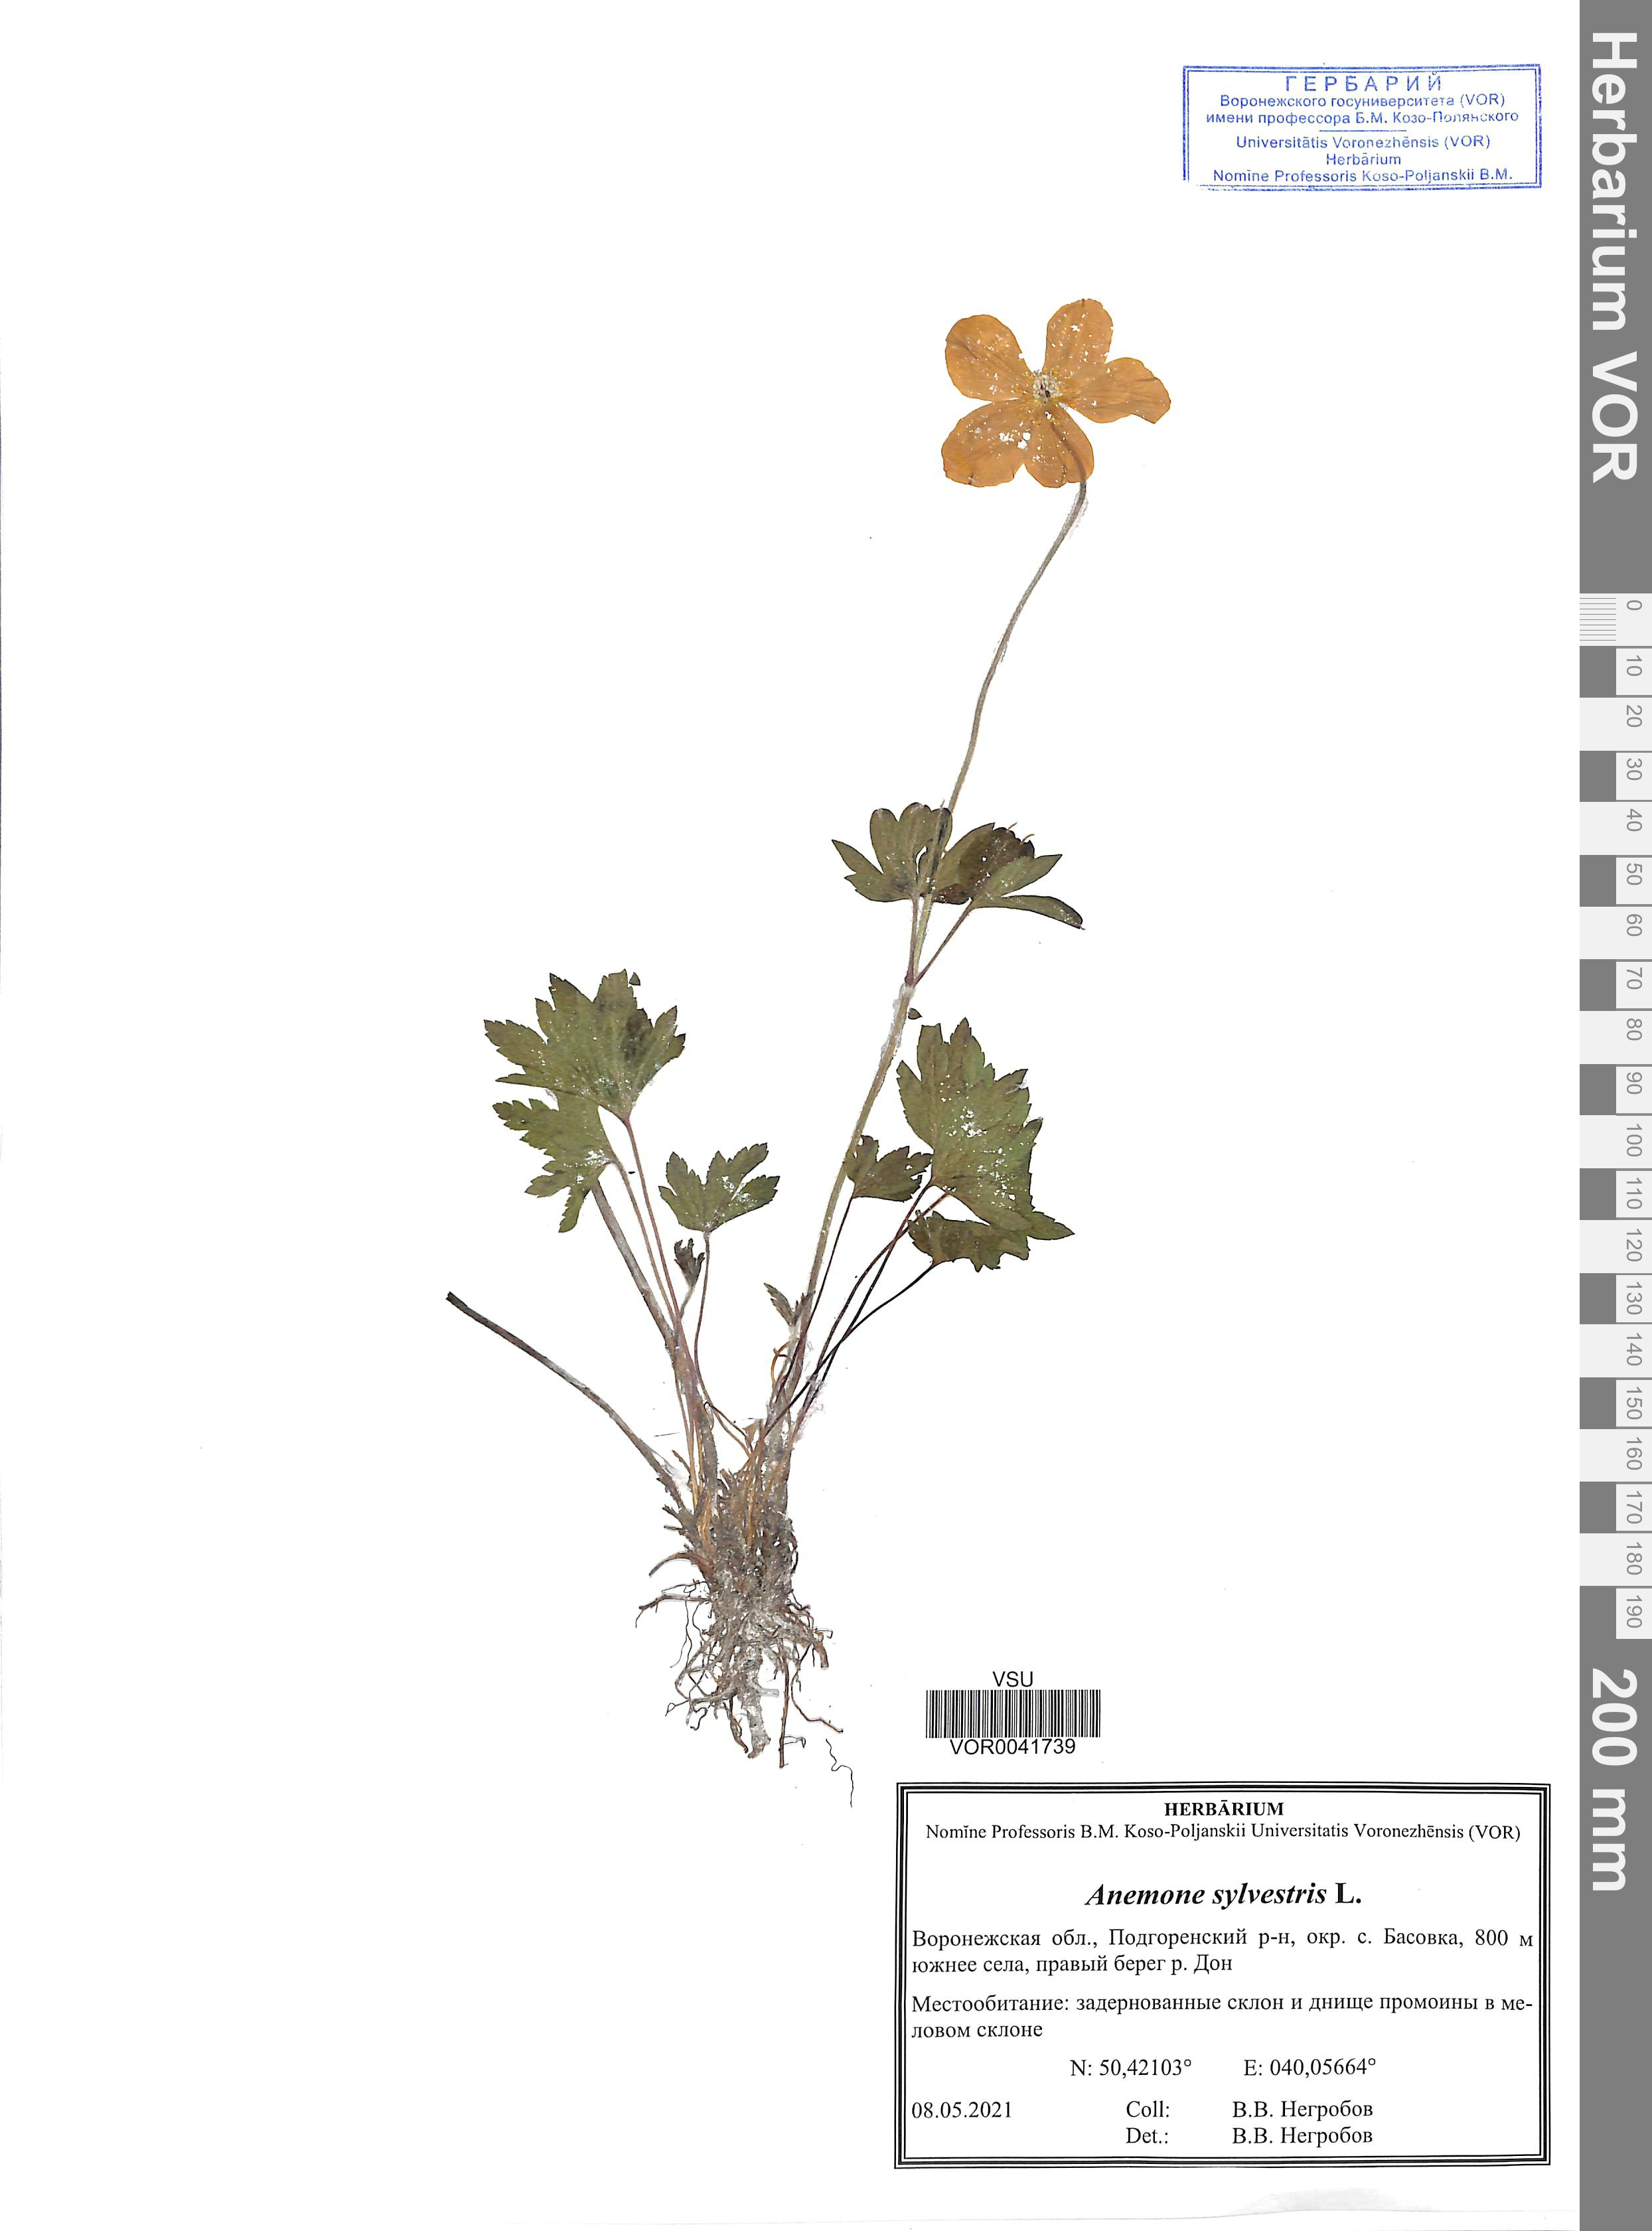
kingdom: Plantae
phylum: Tracheophyta
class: Magnoliopsida
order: Ranunculales
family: Ranunculaceae
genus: Anemone
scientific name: Anemone sylvestris
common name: Snowdrop anemone
